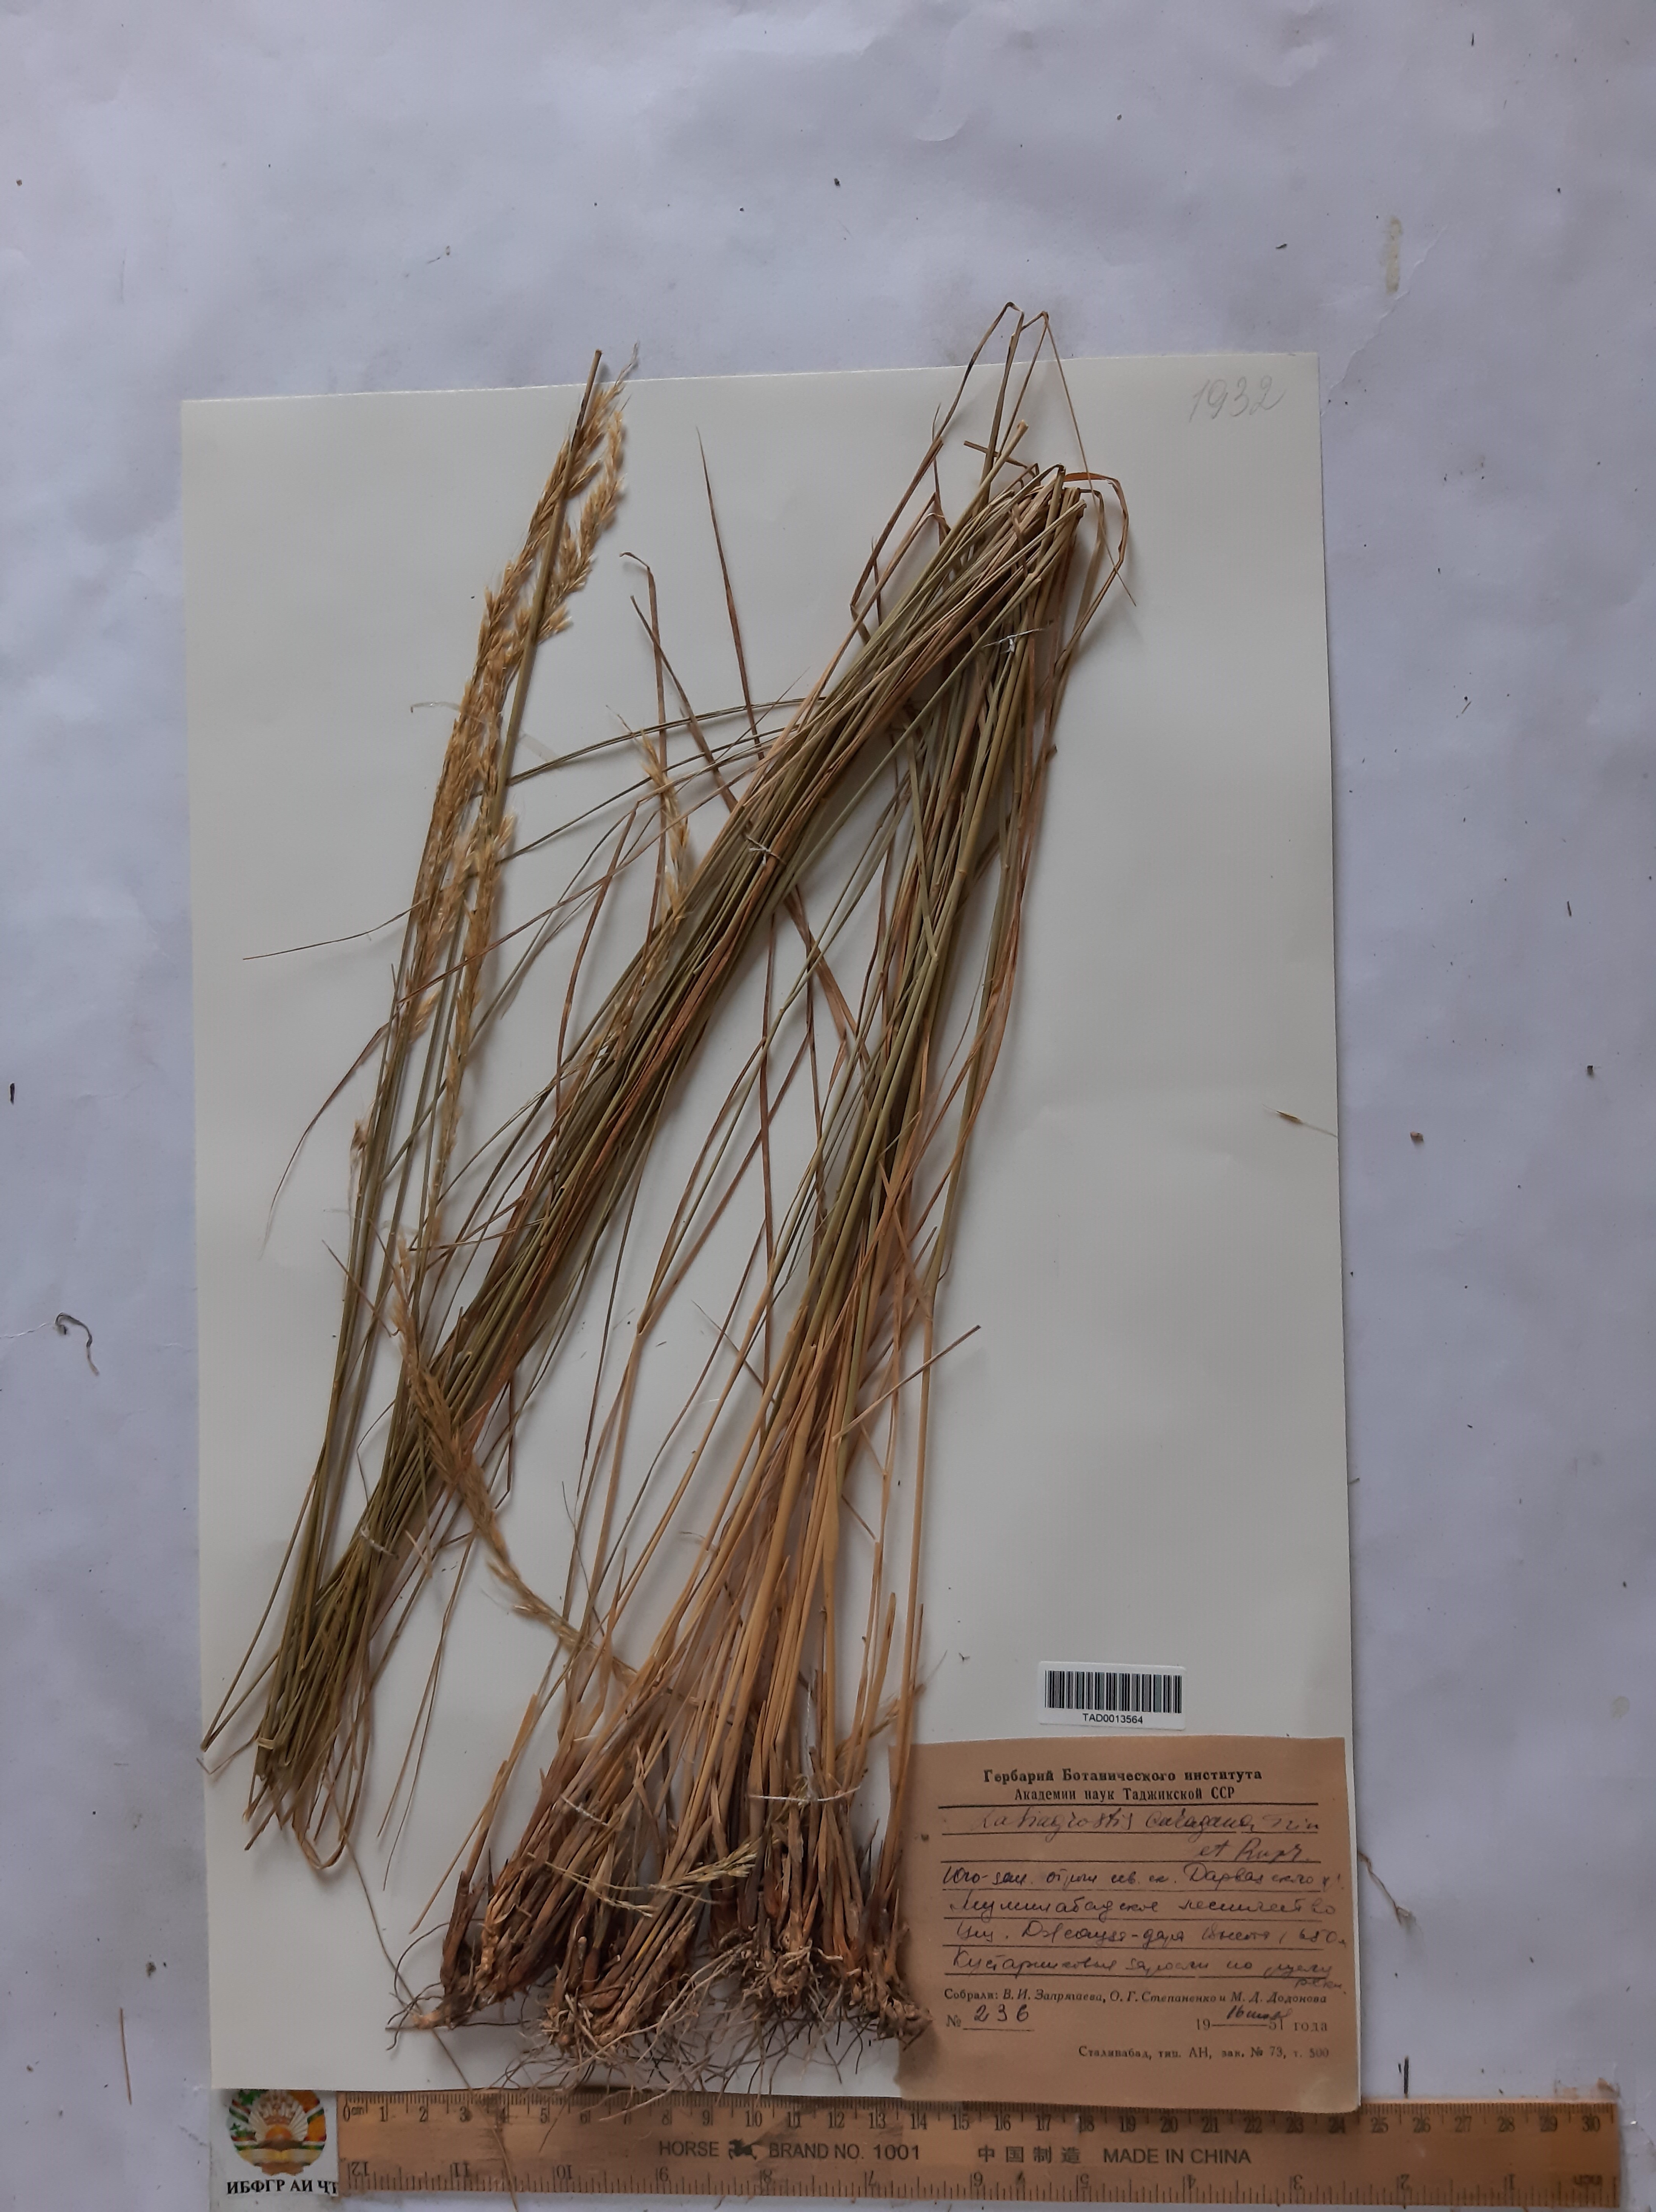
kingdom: Plantae
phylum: Tracheophyta
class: Liliopsida
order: Poales
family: Poaceae
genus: Stipa
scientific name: Stipa conferta
